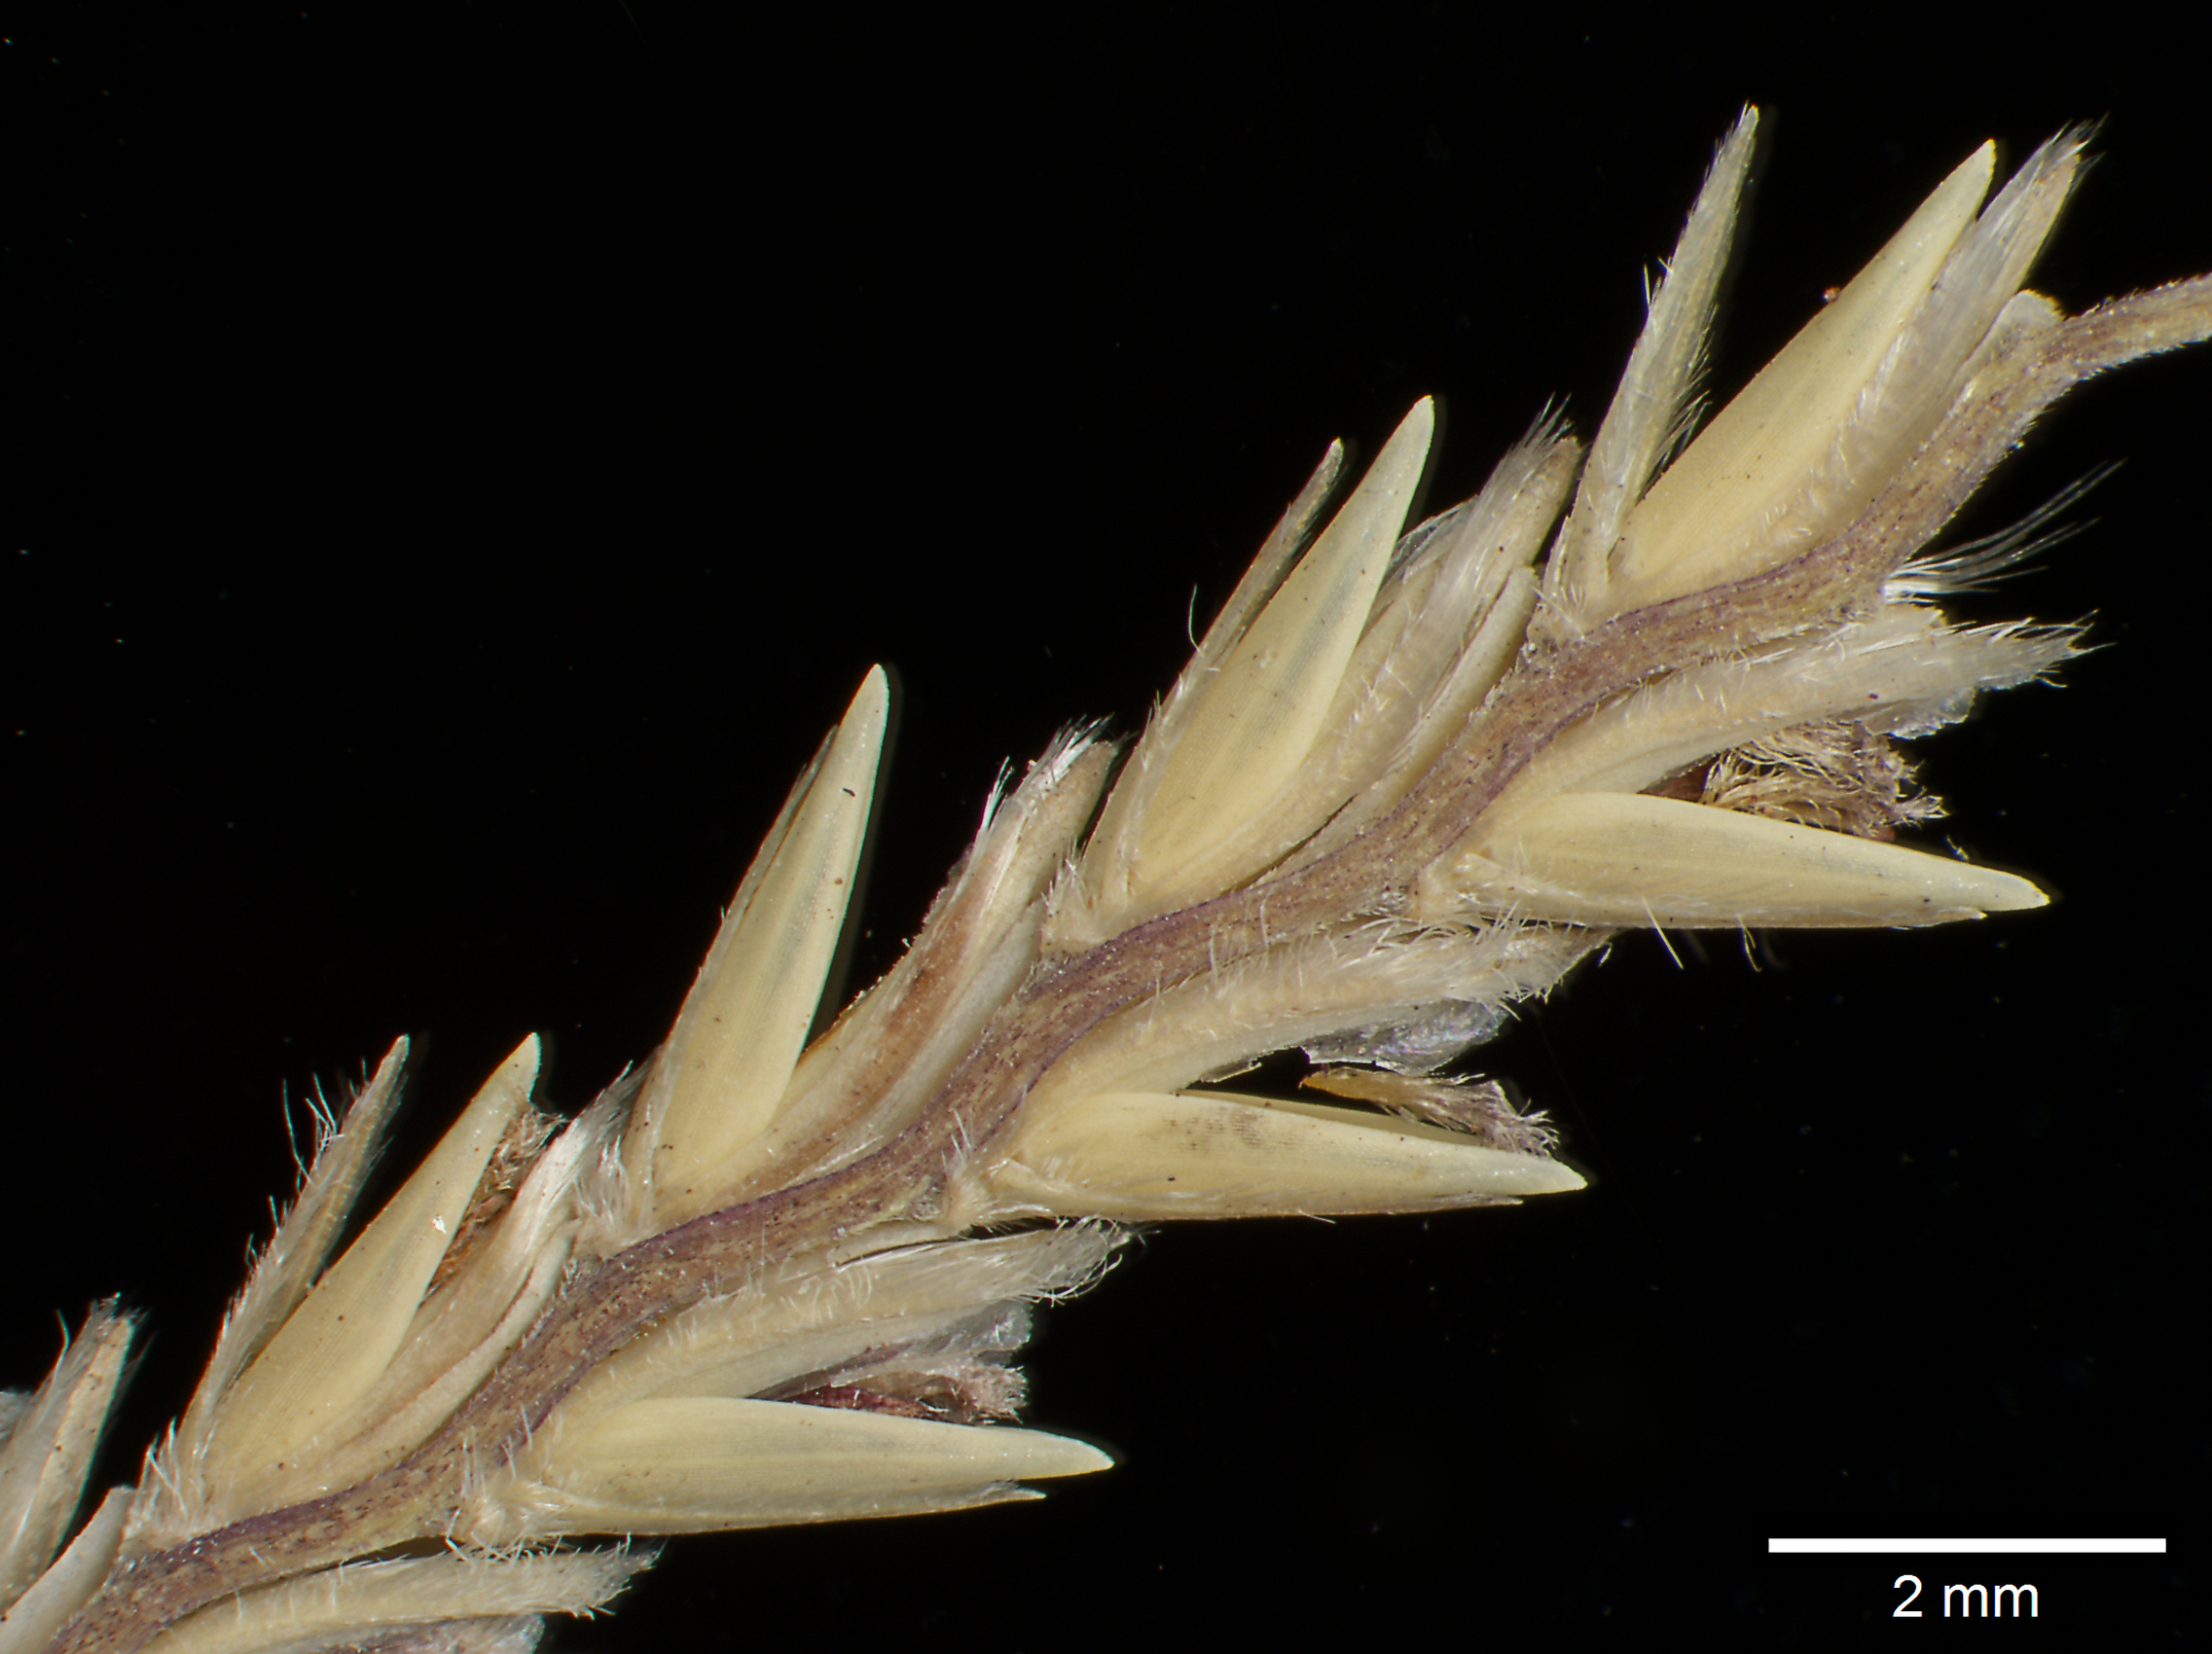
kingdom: Plantae
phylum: Tracheophyta
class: Liliopsida
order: Poales
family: Poaceae
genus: Mesosetum
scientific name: Mesosetum loliiforme
